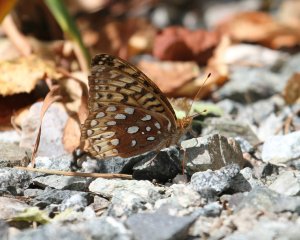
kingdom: Animalia
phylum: Arthropoda
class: Insecta
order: Lepidoptera
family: Nymphalidae
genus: Speyeria
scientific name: Speyeria cybele
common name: Great Spangled Fritillary
